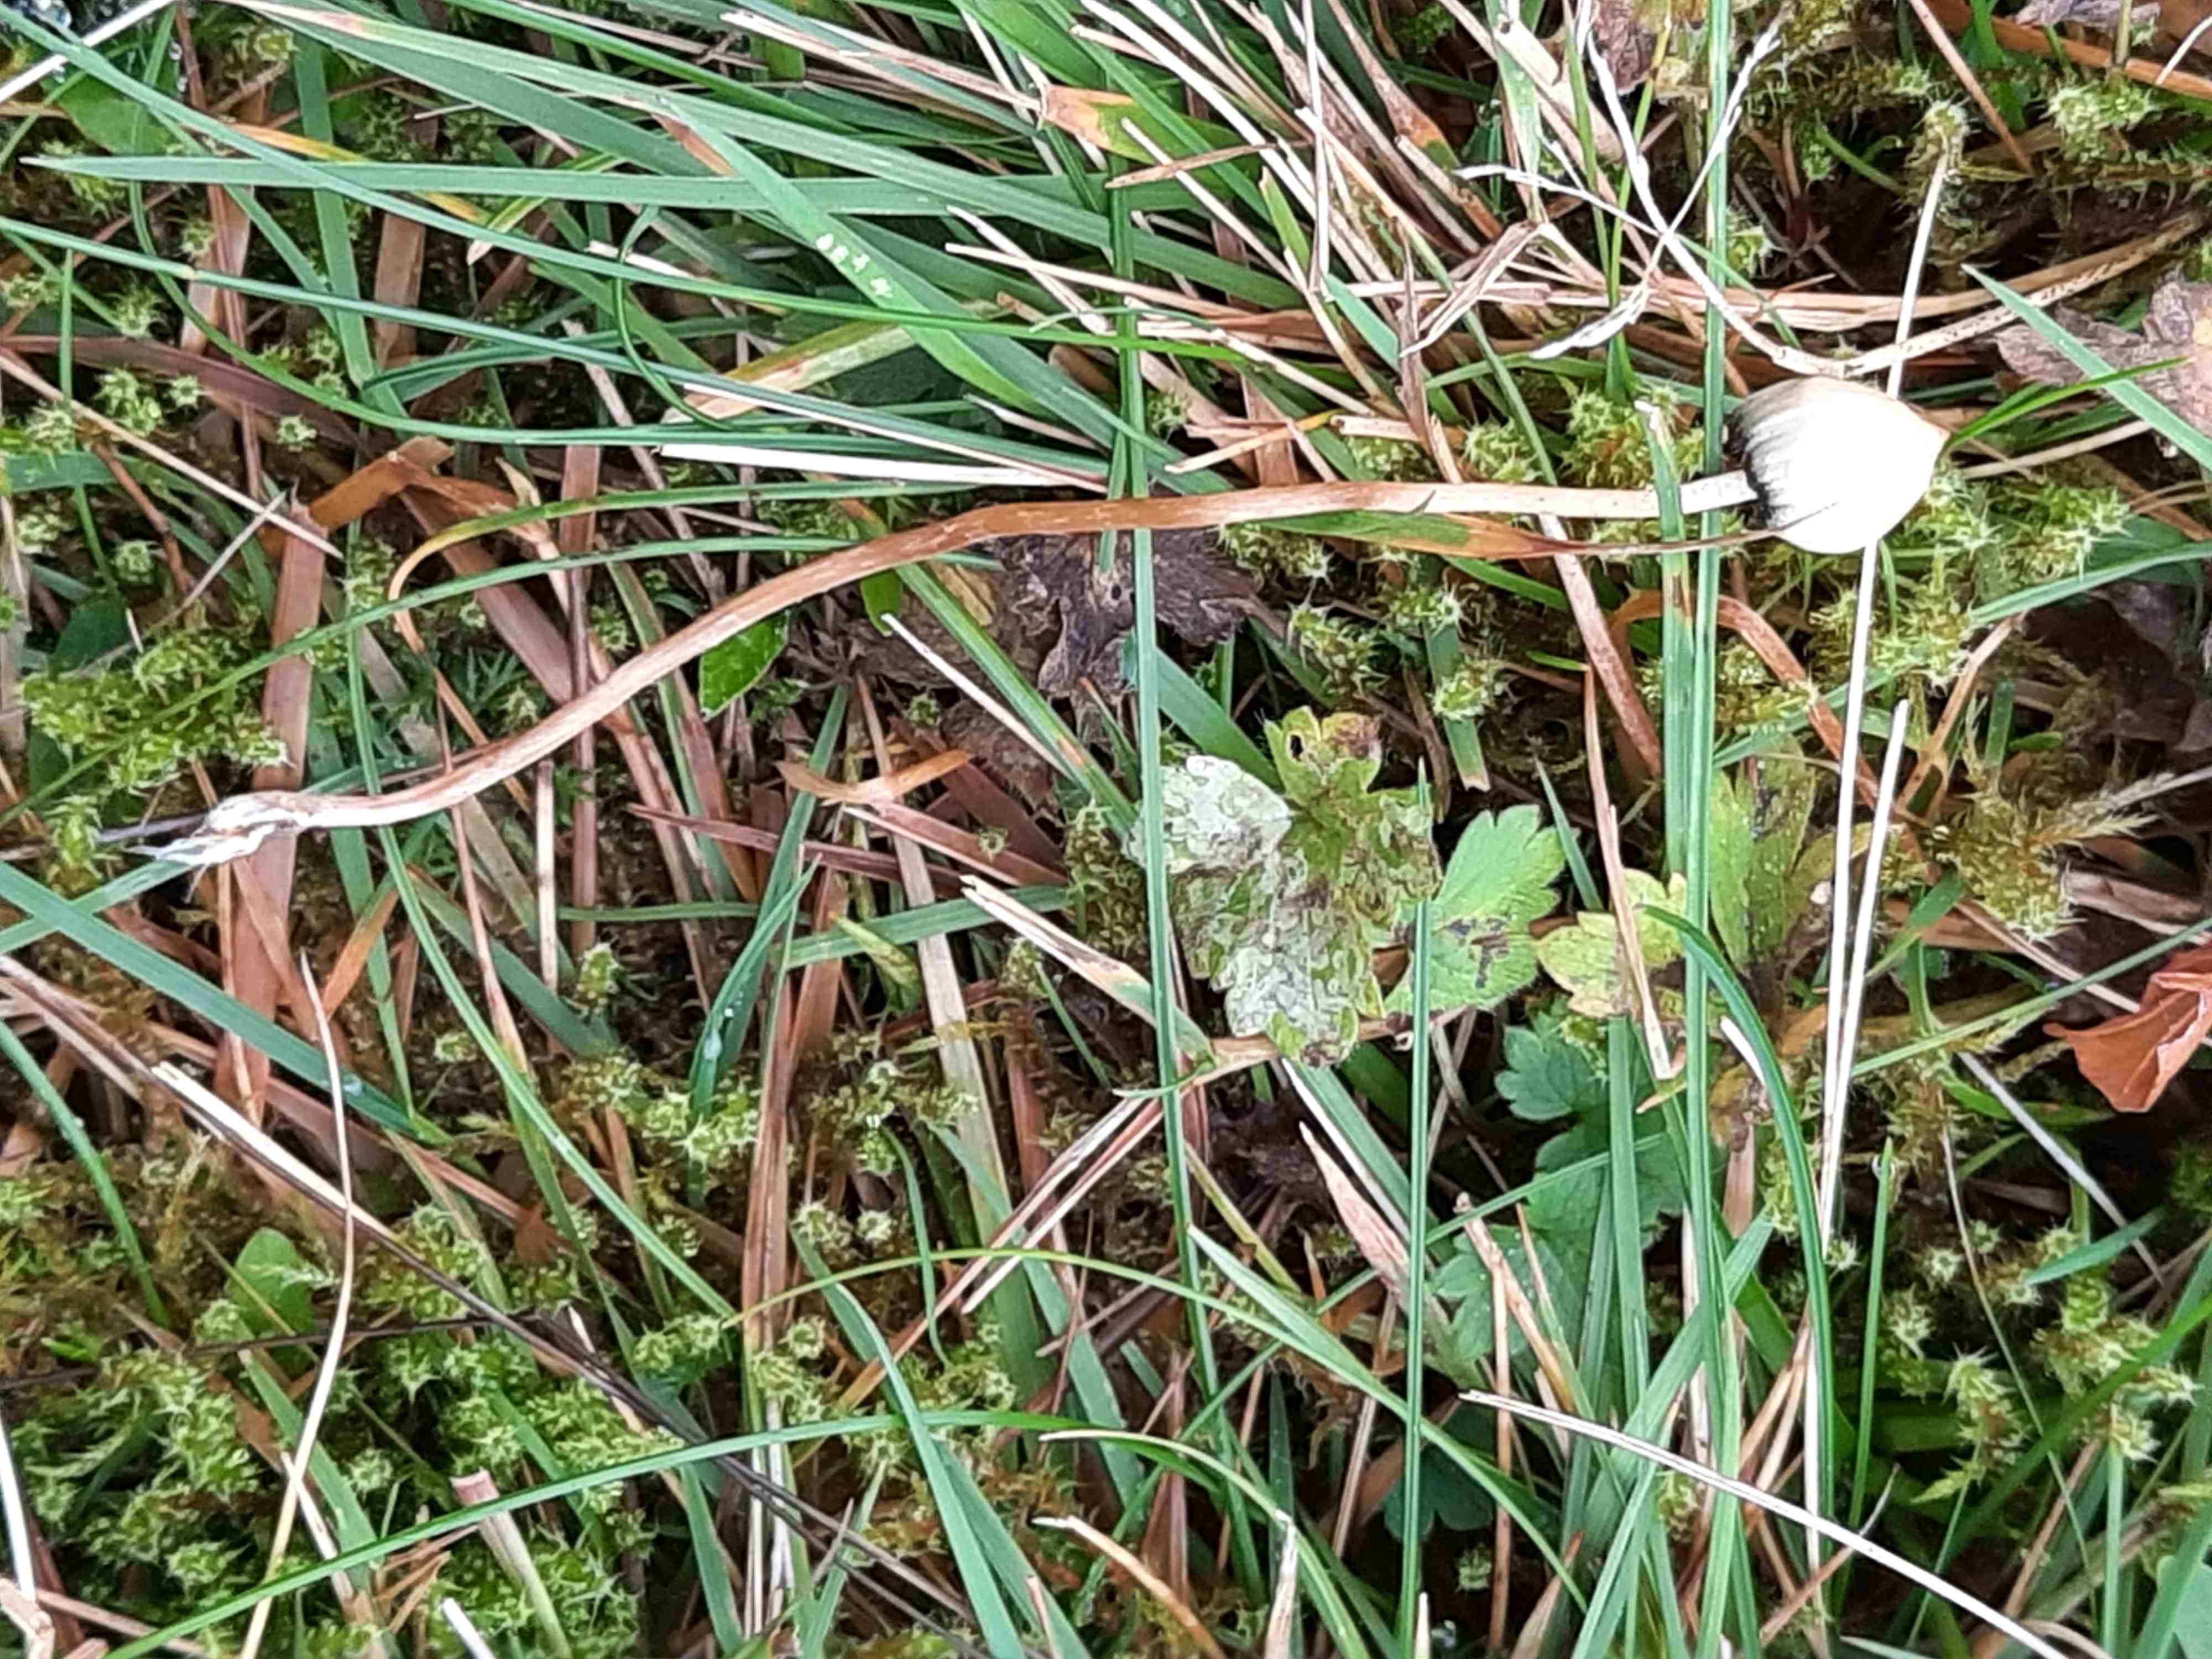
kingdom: Fungi
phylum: Basidiomycota
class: Agaricomycetes
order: Agaricales
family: Hymenogastraceae
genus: Psilocybe
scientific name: Psilocybe semilanceata
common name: spids nøgenhat
